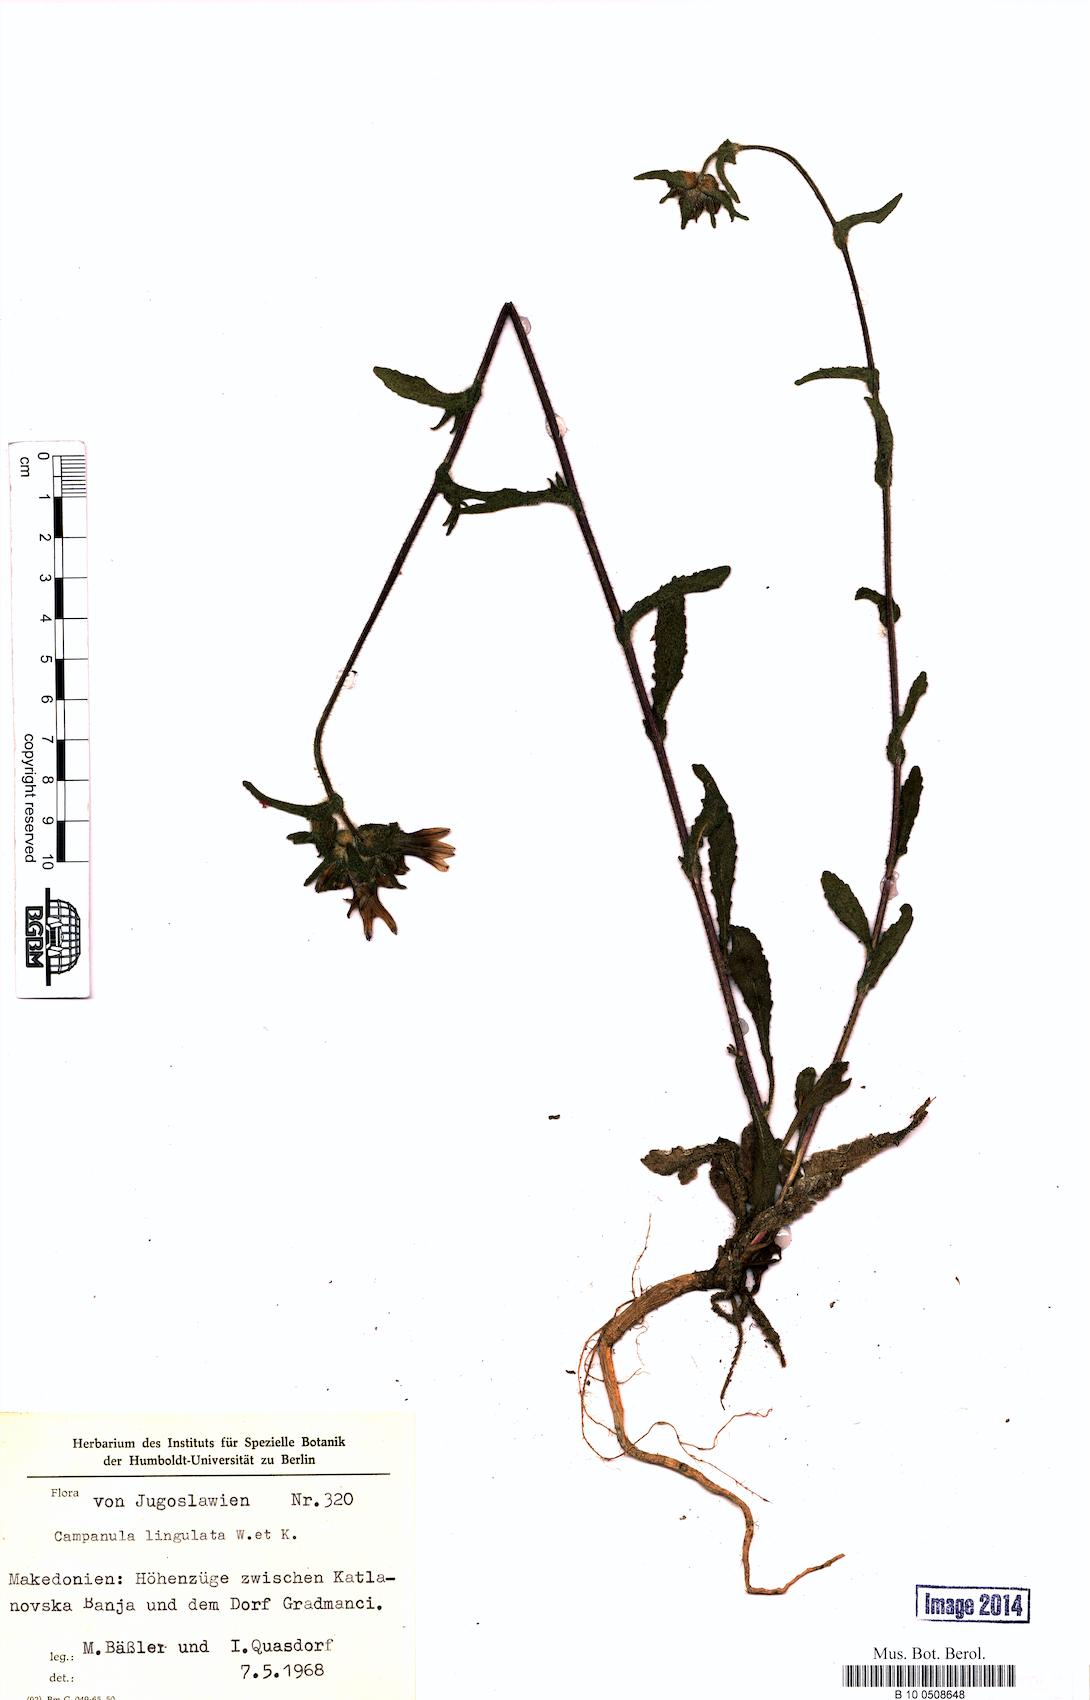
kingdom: Plantae
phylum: Tracheophyta
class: Magnoliopsida
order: Asterales
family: Campanulaceae
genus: Campanula
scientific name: Campanula lingulata
